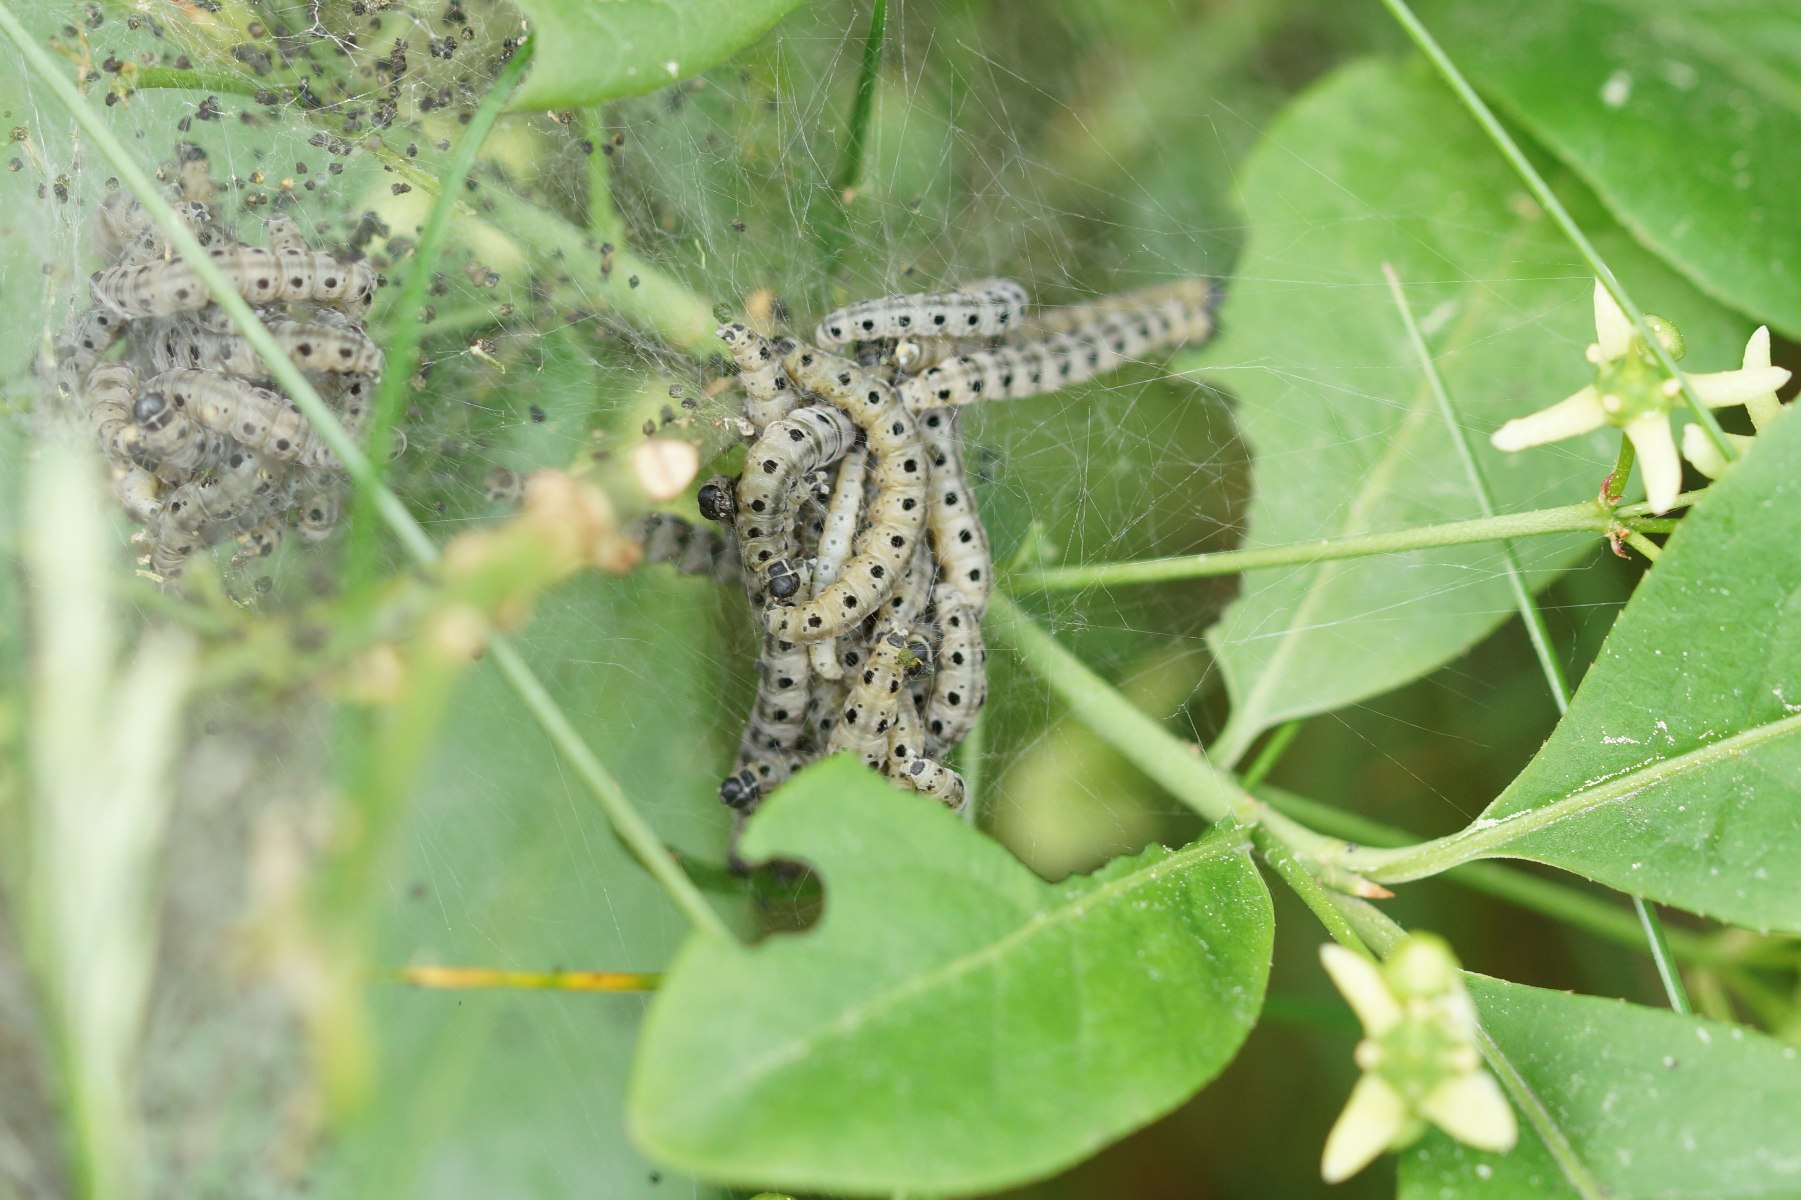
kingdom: Animalia
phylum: Arthropoda
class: Insecta
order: Lepidoptera
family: Yponomeutidae
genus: Yponomeuta
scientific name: Yponomeuta cagnagellus
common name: Benvedspindemøl
